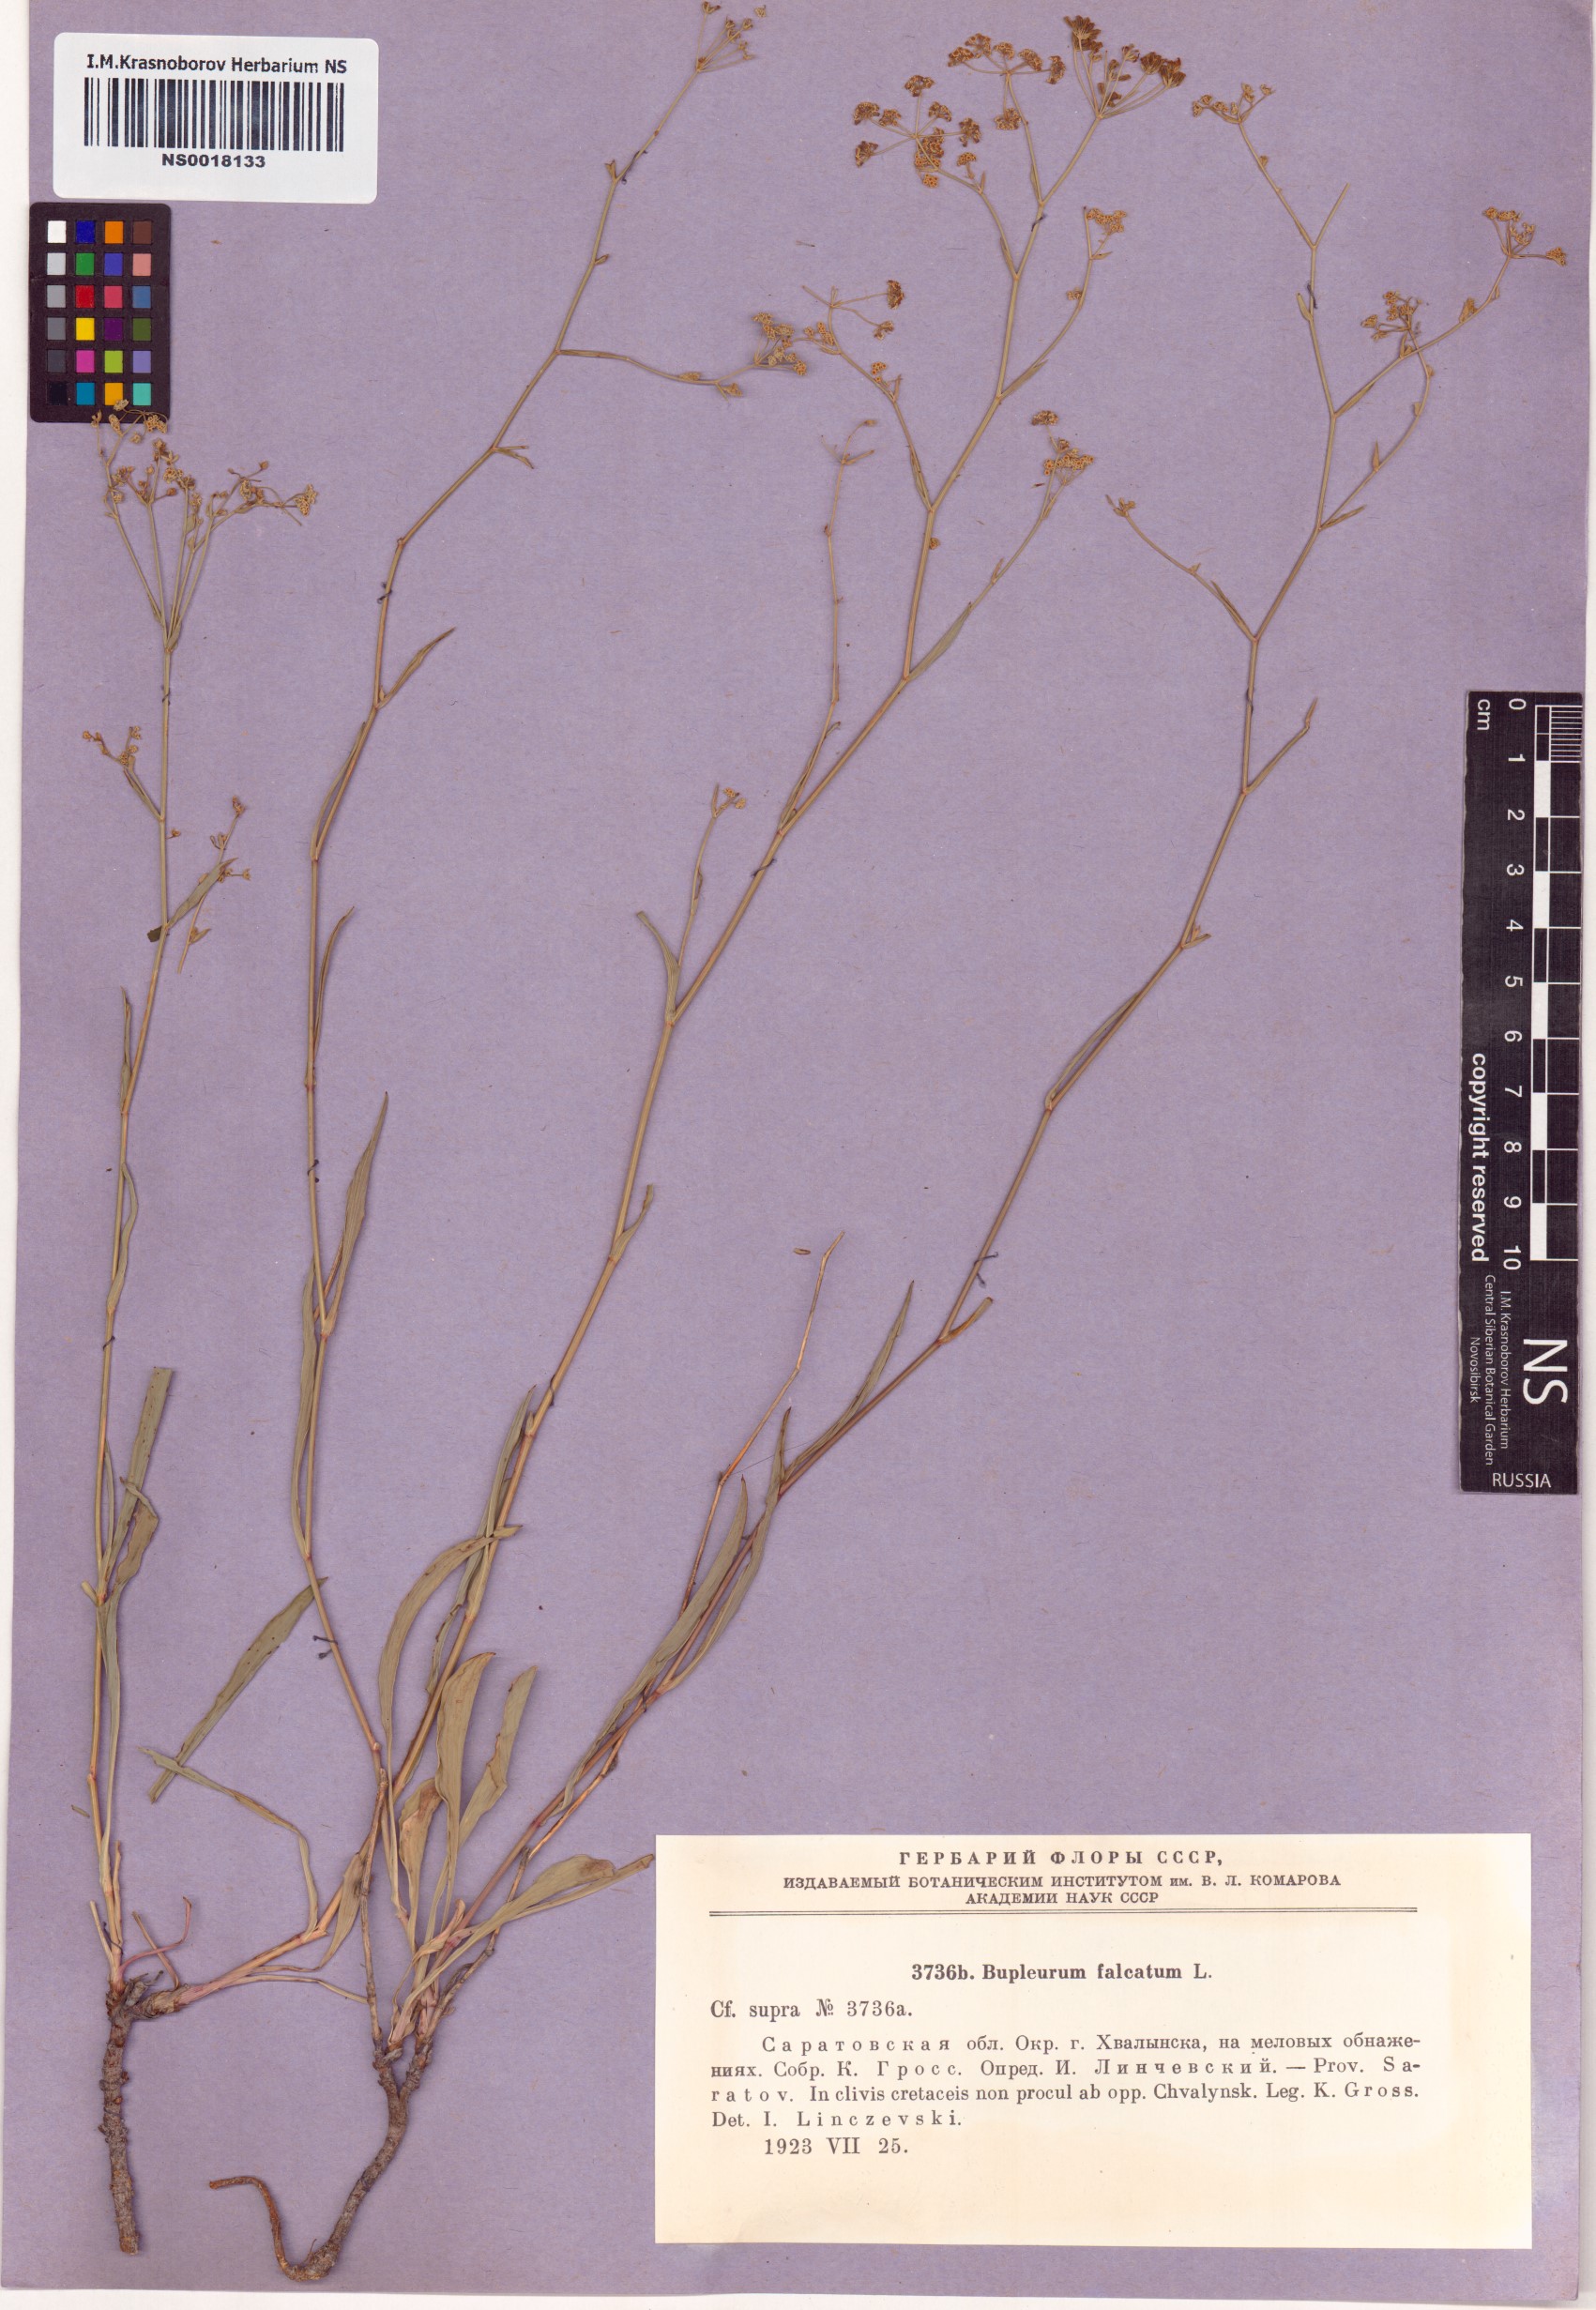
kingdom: Plantae
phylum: Tracheophyta
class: Magnoliopsida
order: Apiales
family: Apiaceae
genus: Bupleurum
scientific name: Bupleurum falcatum
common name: Sickle-leaved hare's-ear
